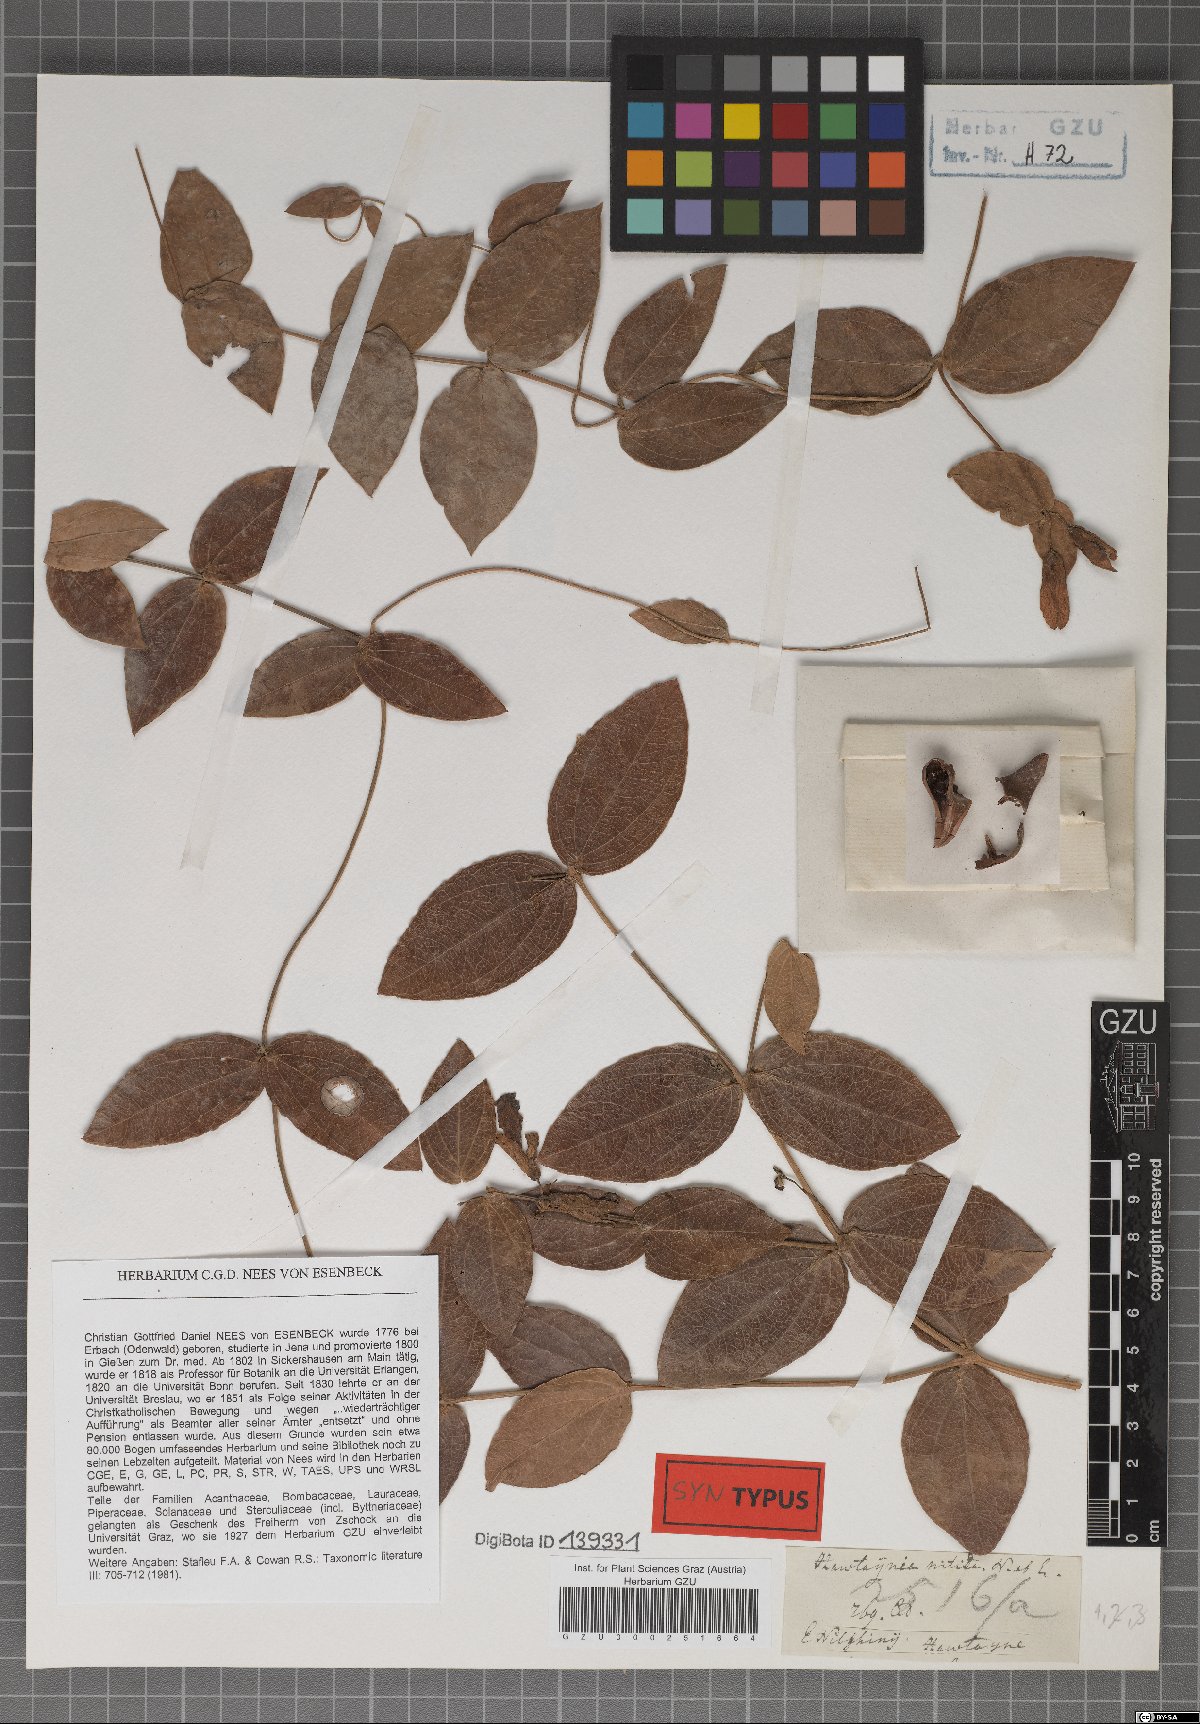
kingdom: Plantae
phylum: Tracheophyta
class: Magnoliopsida
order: Lamiales
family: Acanthaceae
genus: Meyenia
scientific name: Meyenia hawtayneana
